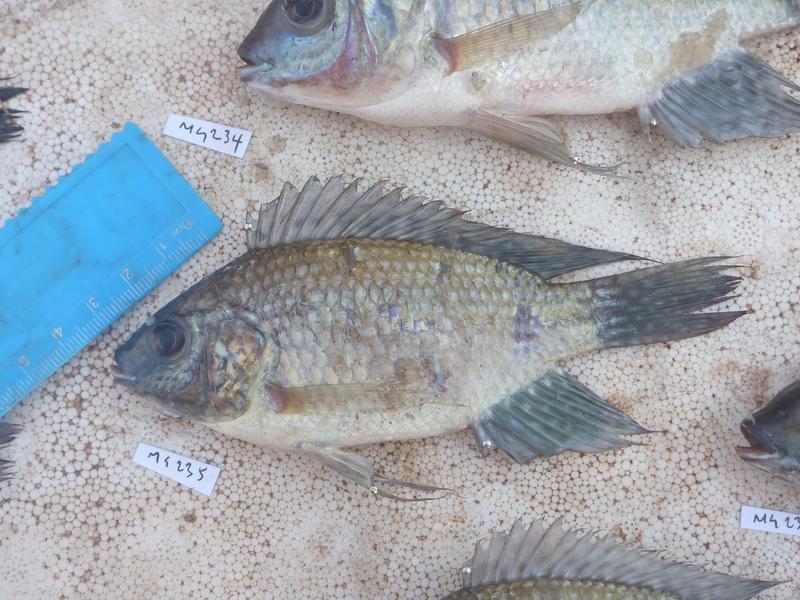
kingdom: Animalia
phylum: Chordata
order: Perciformes
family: Cichlidae
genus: Oreochromis
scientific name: Oreochromis leucostictus
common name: Blue spotted tilapia
